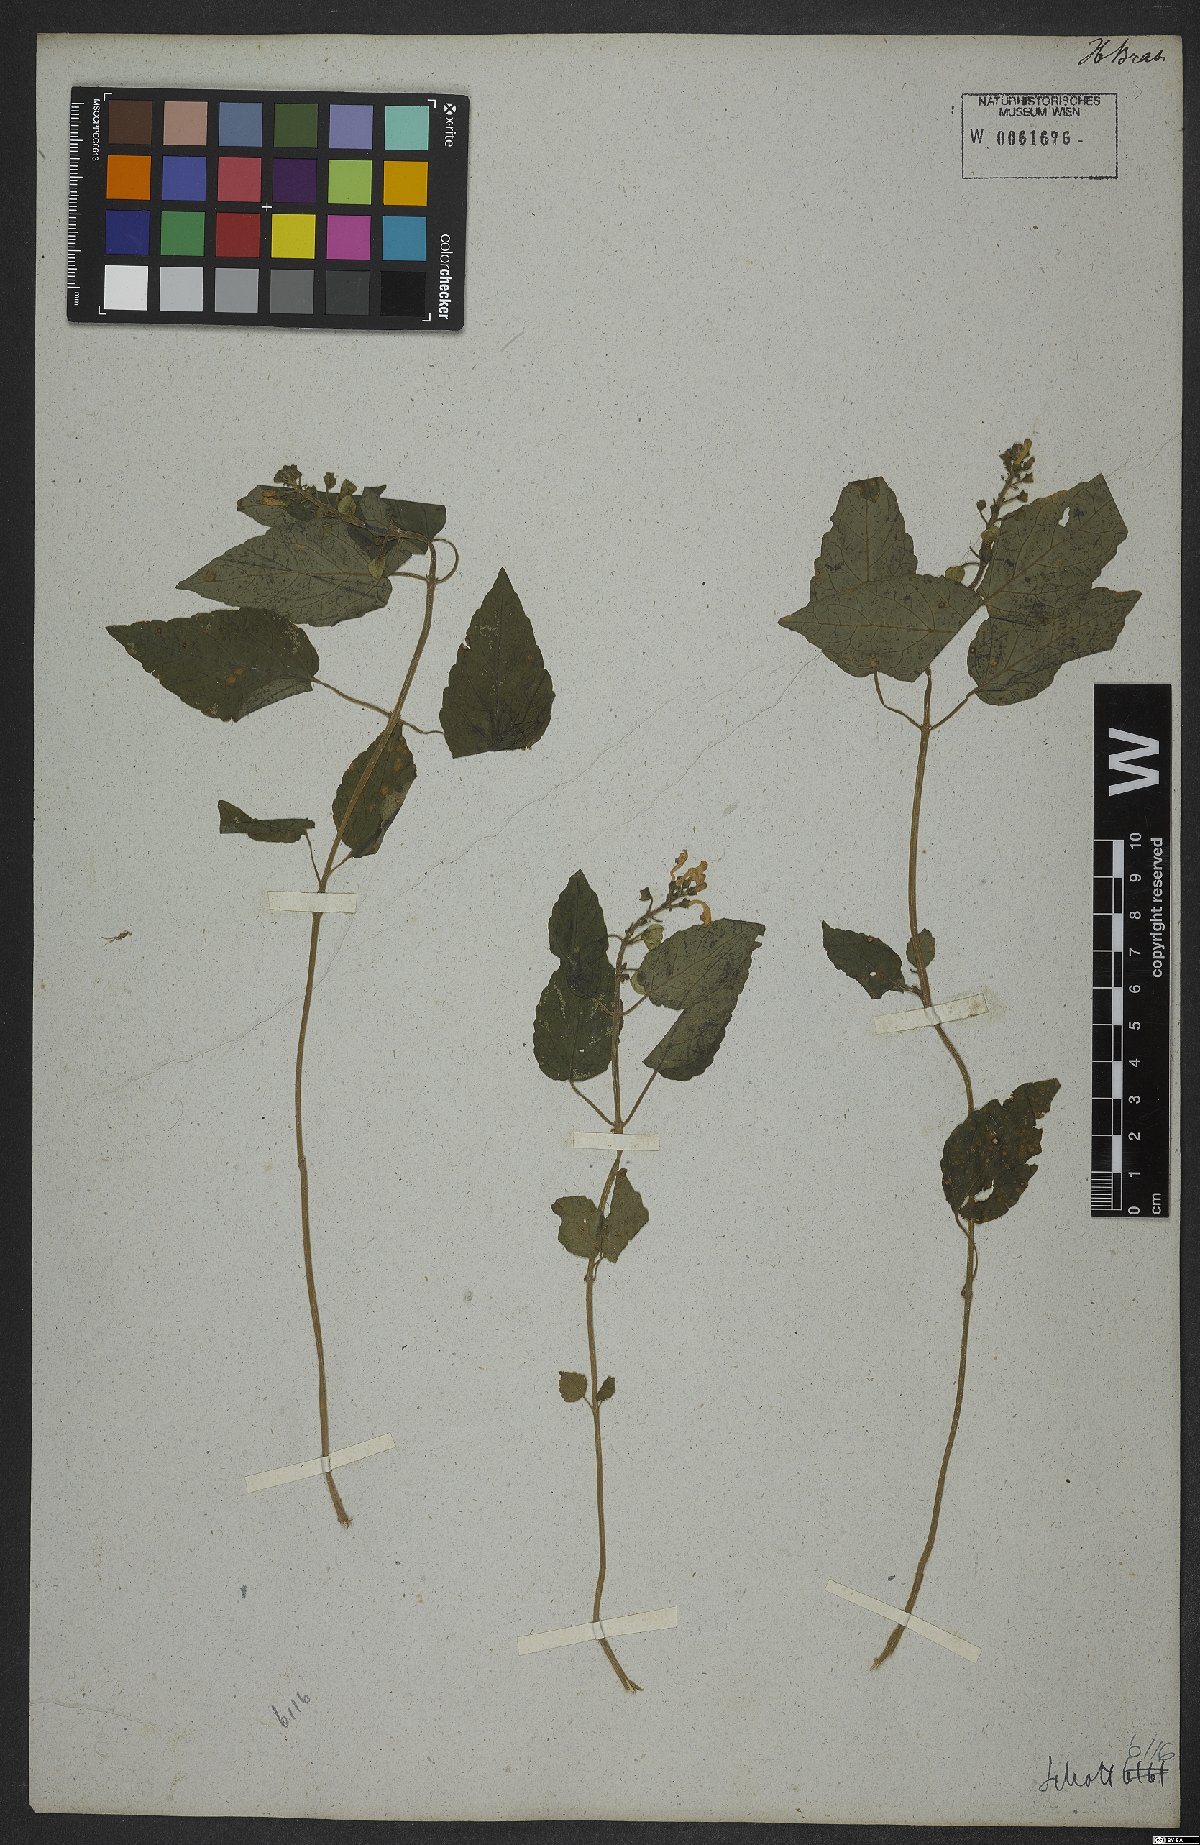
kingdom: Plantae
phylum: Tracheophyta
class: Magnoliopsida
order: Lamiales
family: Lamiaceae
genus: Scutellaria
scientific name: Scutellaria uliginosa
